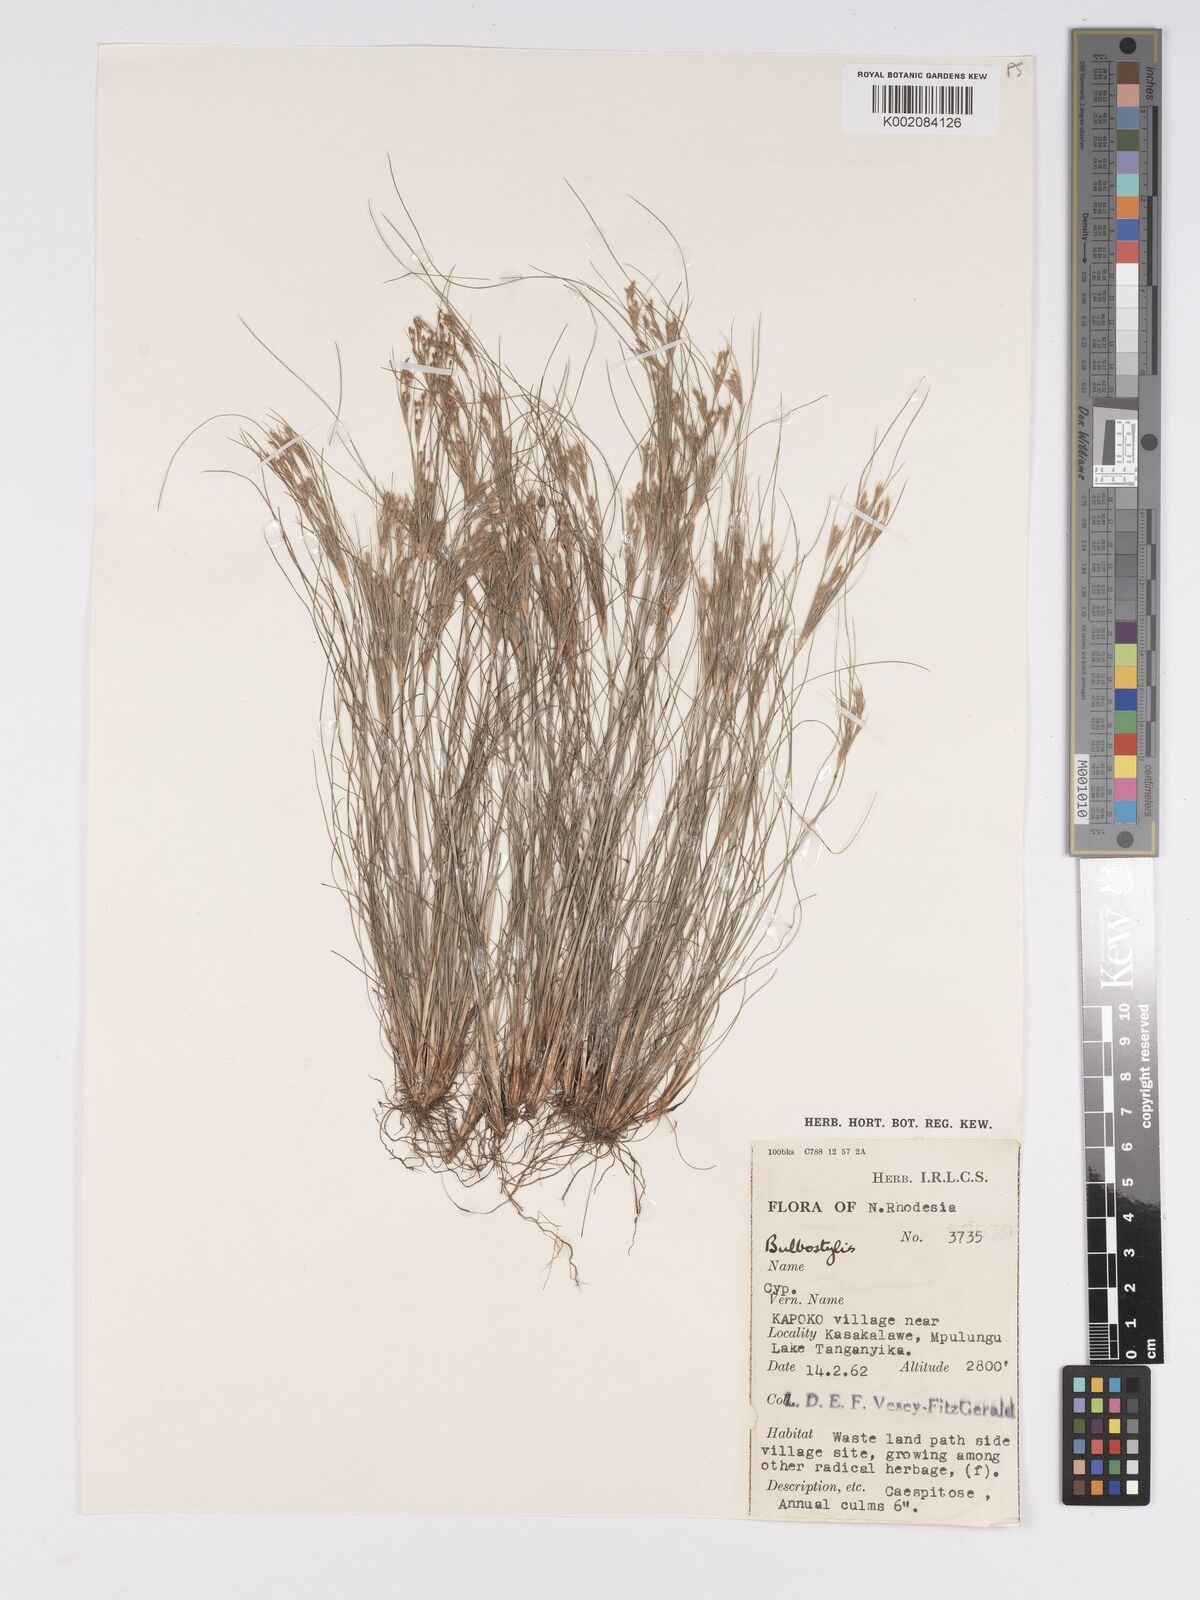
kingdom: Plantae
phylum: Tracheophyta
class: Liliopsida
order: Poales
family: Cyperaceae
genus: Bulbostylis
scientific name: Bulbostylis
